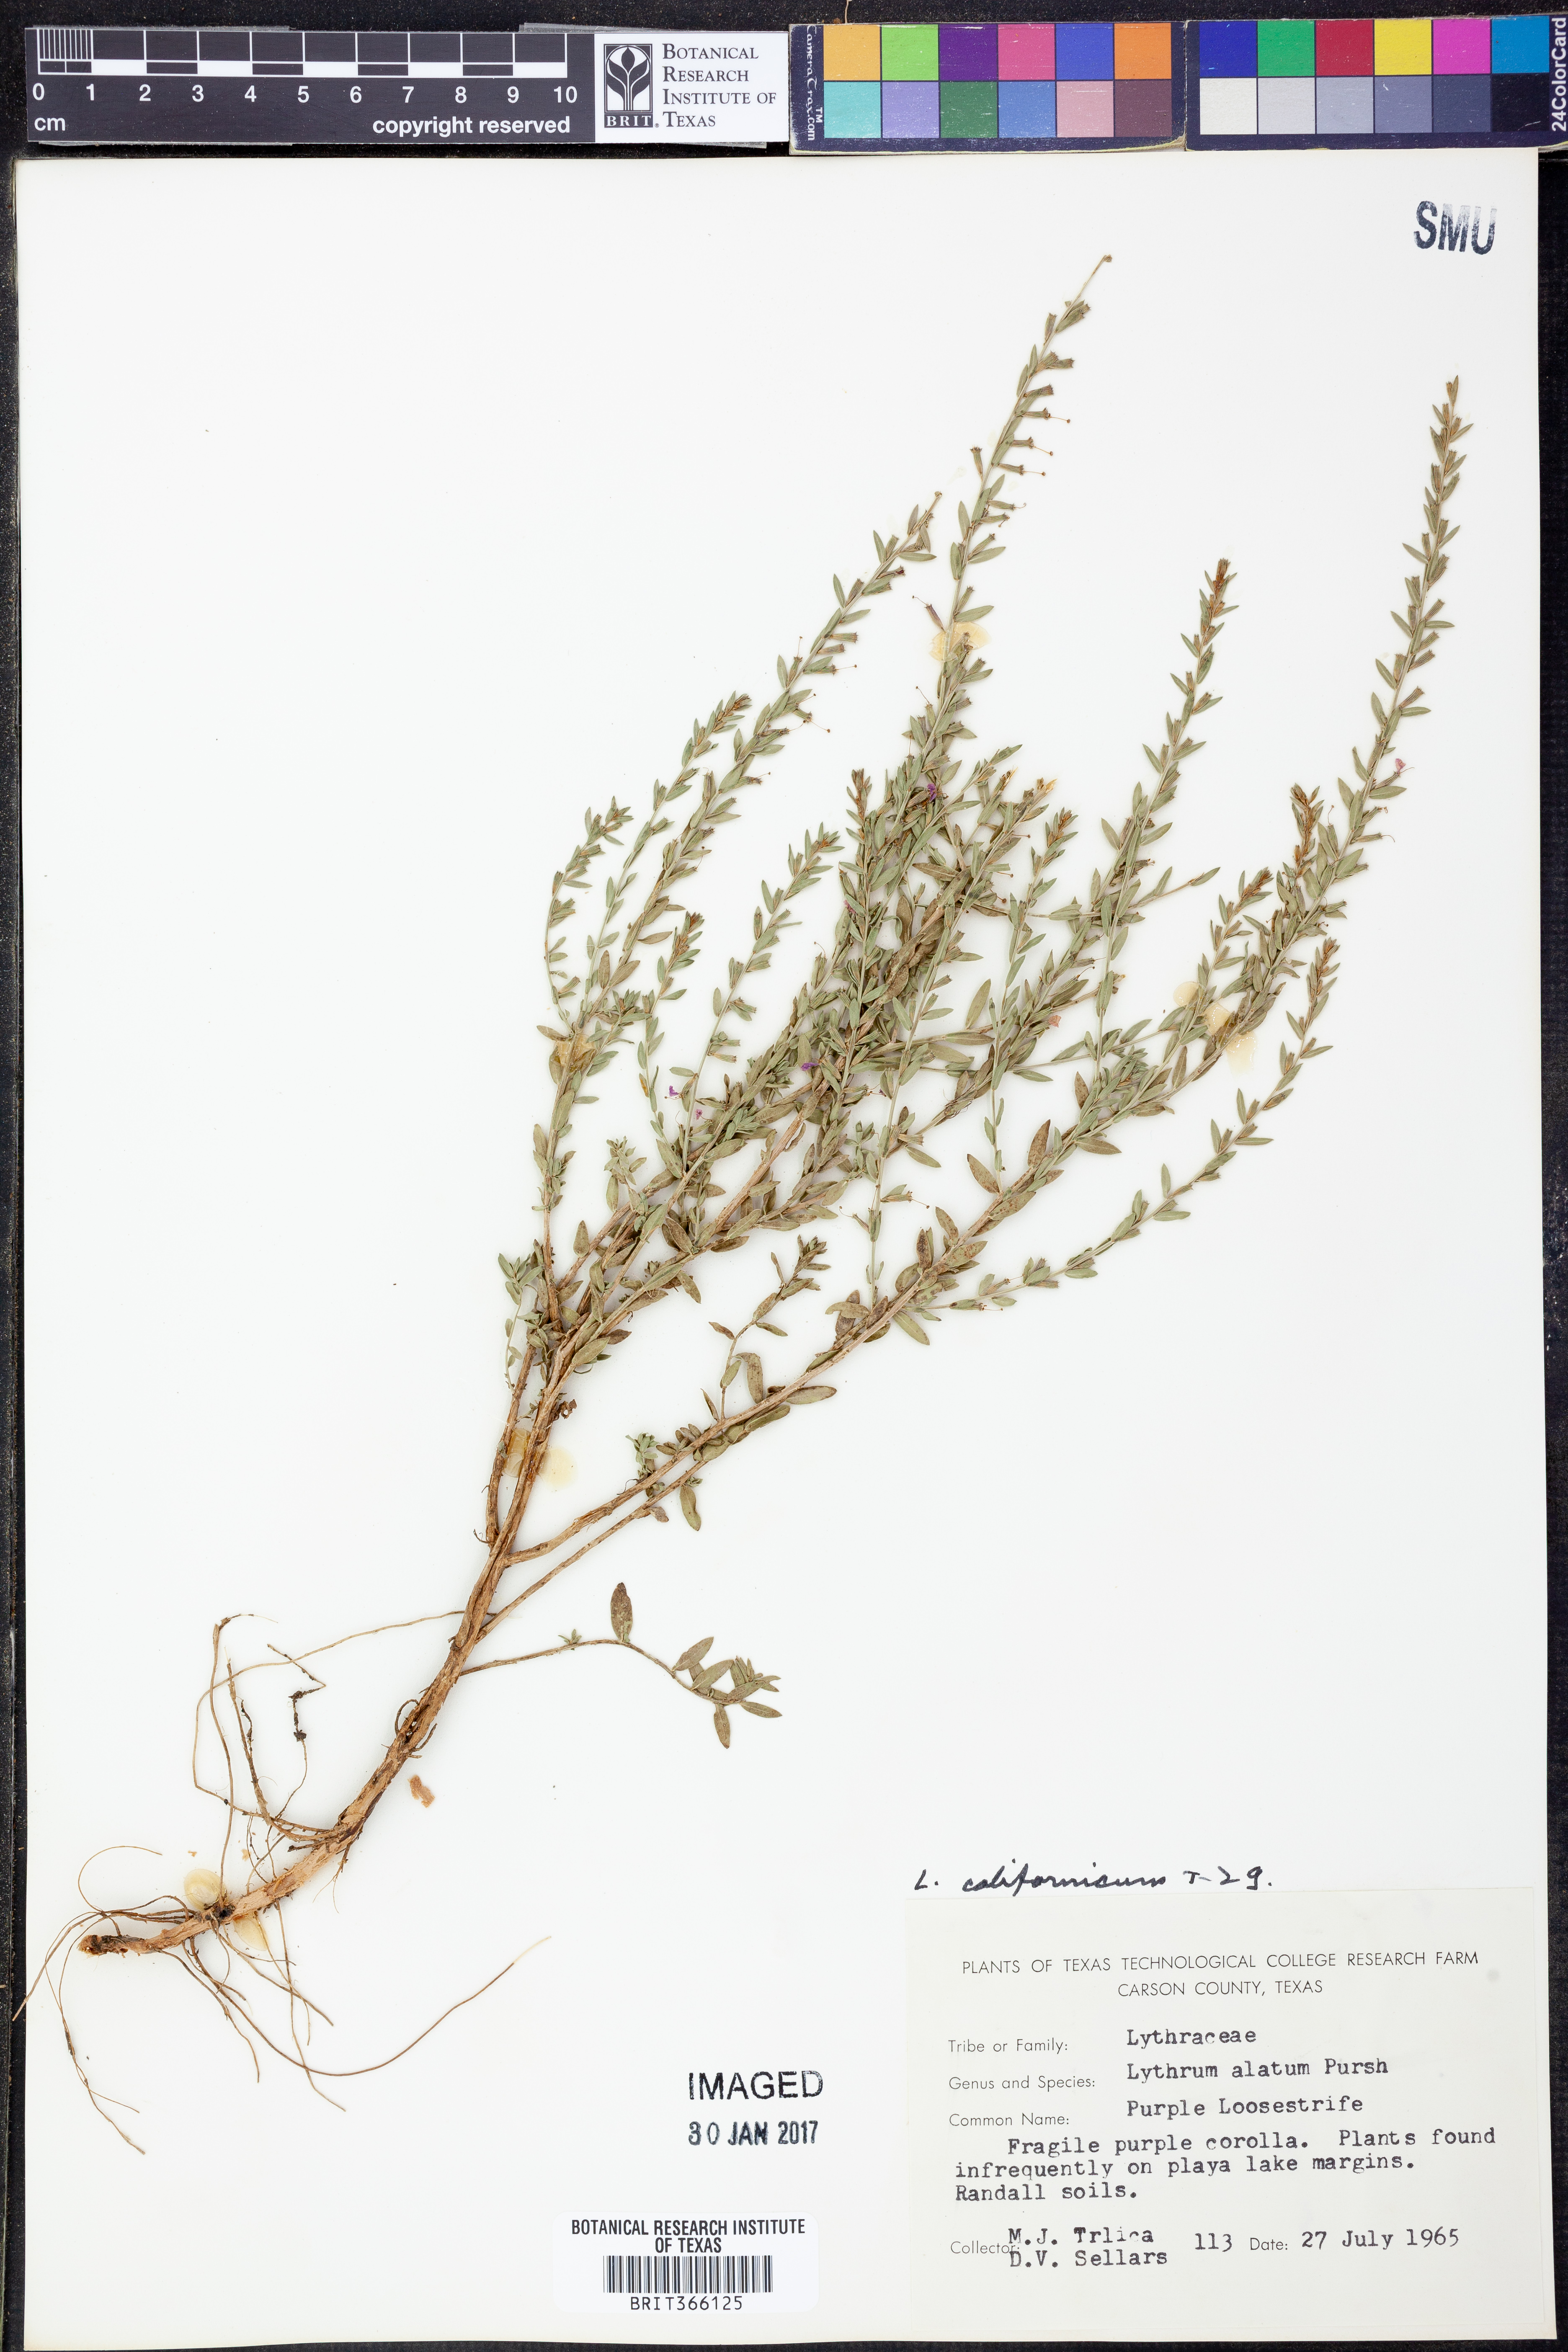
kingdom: Plantae
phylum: Tracheophyta
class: Magnoliopsida
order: Myrtales
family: Lythraceae
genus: Lythrum
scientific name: Lythrum californicum
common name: California loosestrife
